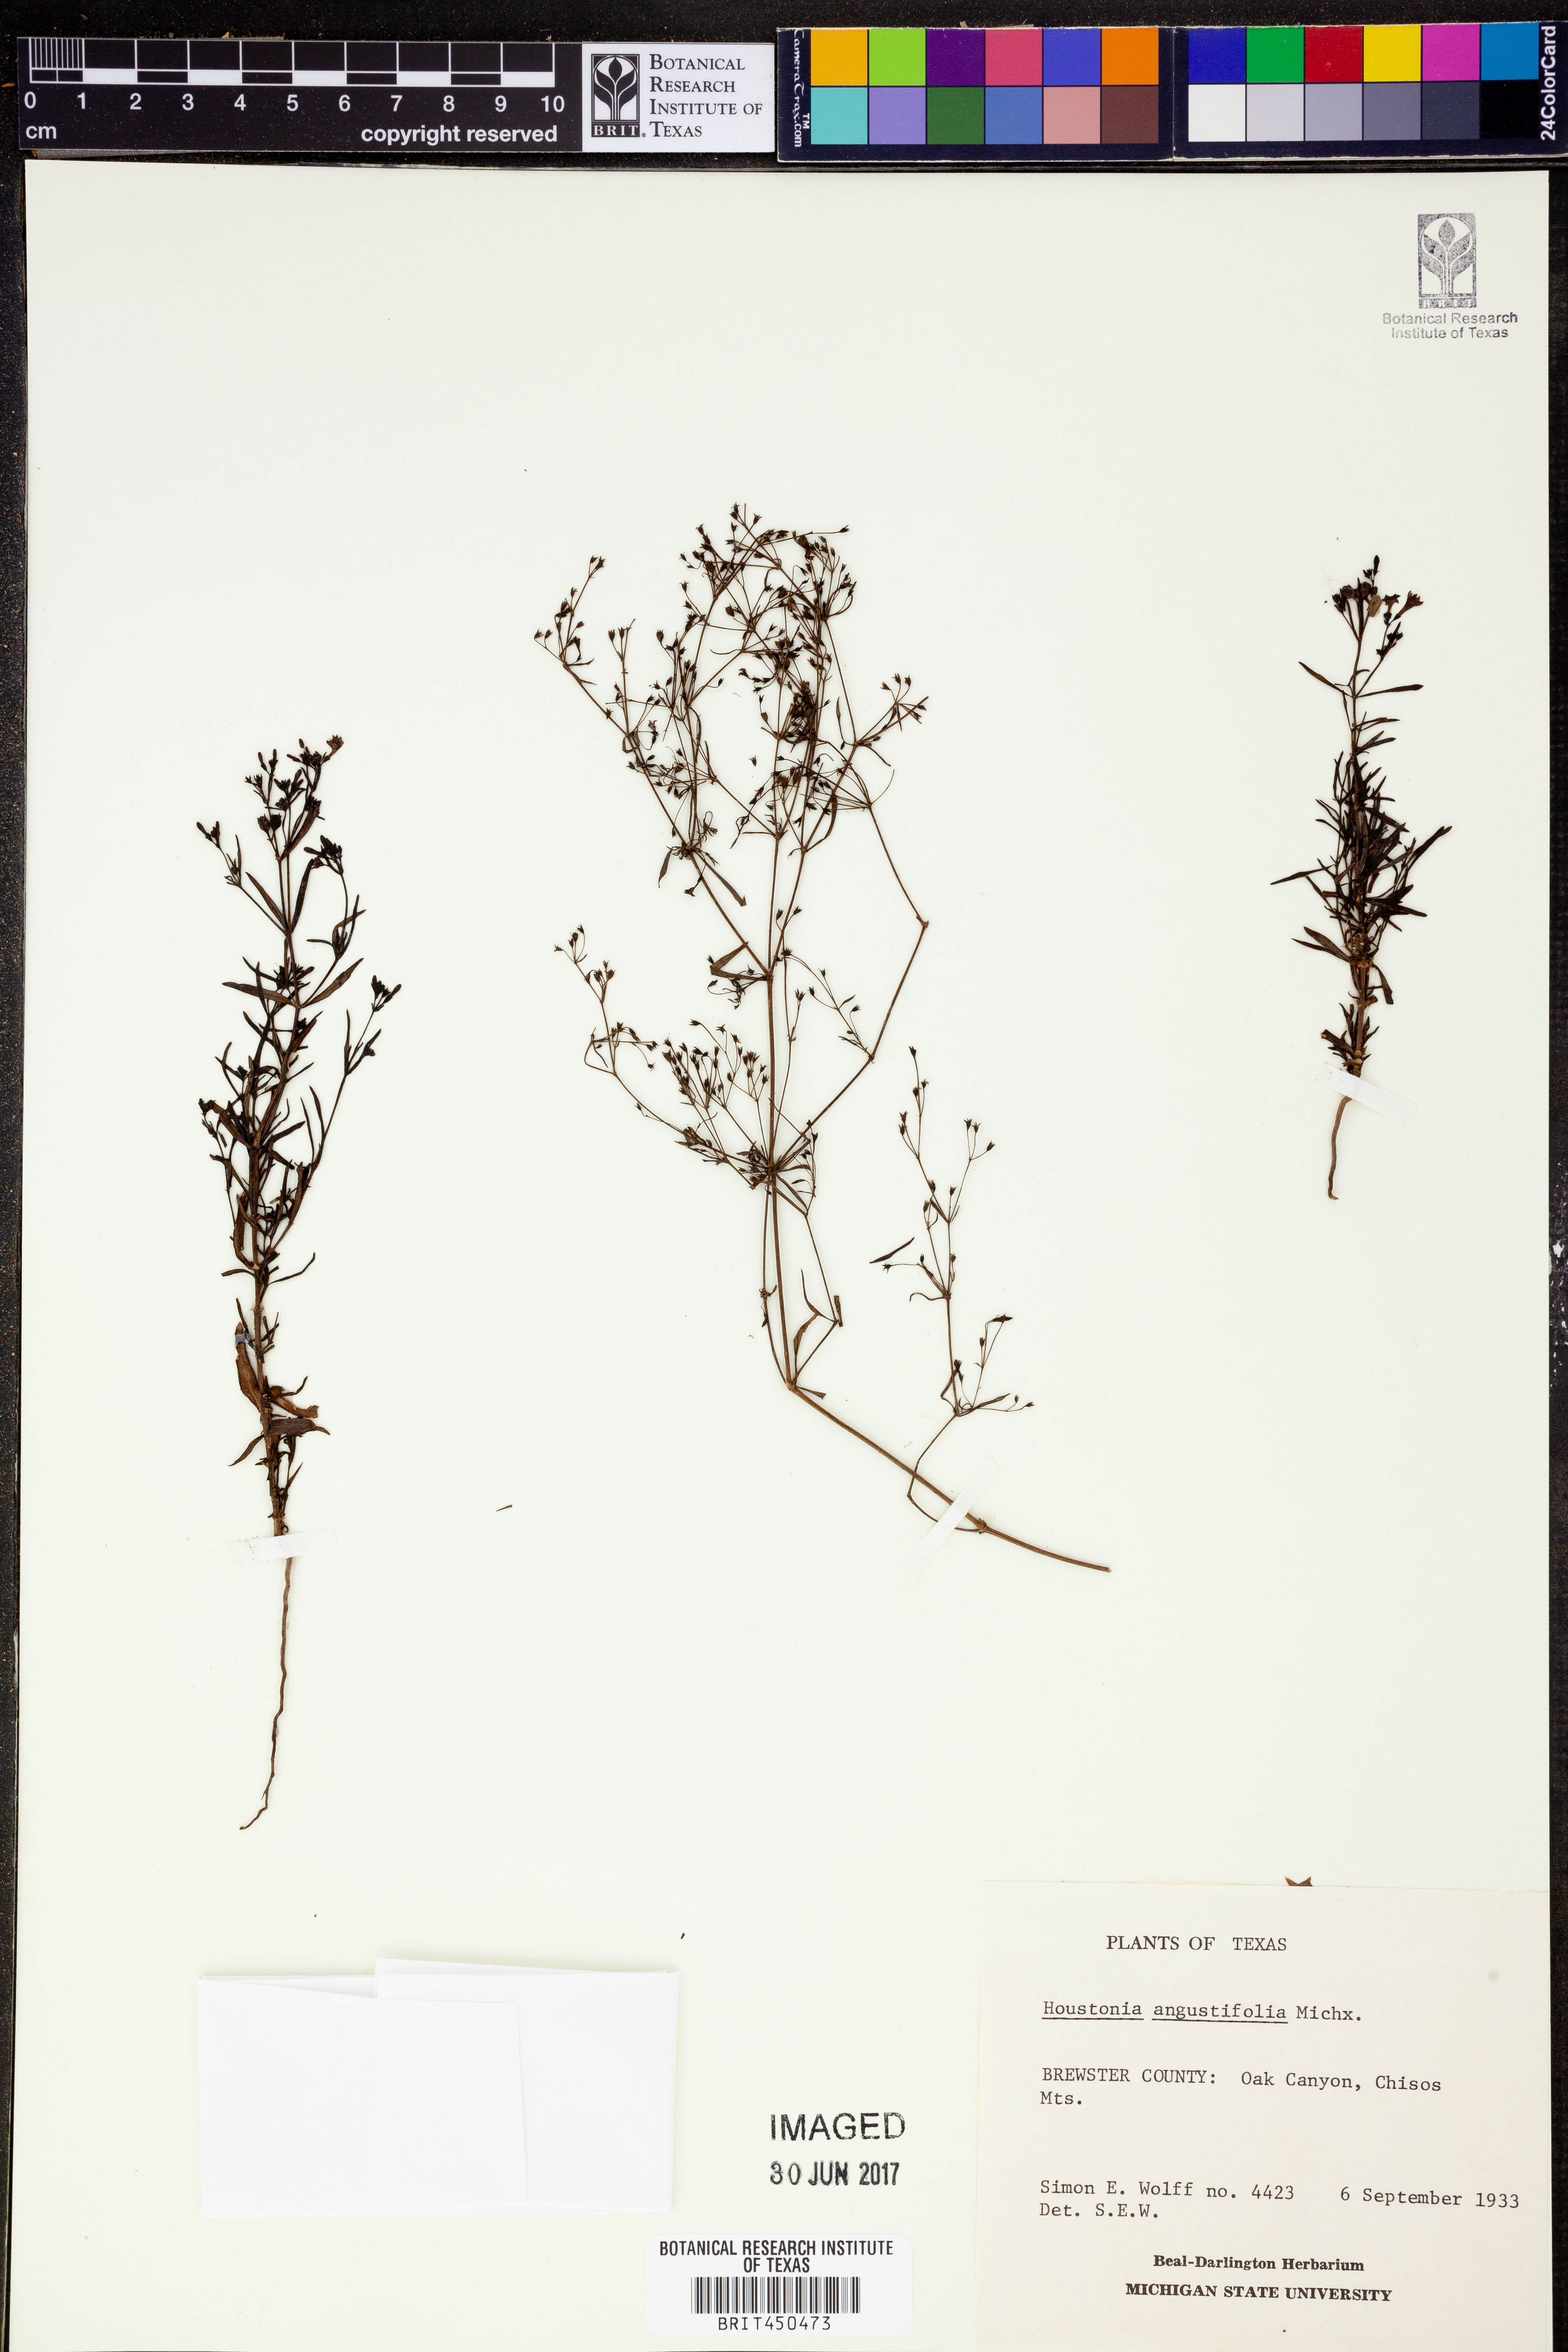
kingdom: Plantae
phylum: Tracheophyta
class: Magnoliopsida
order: Gentianales
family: Rubiaceae
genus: Stenaria
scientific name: Stenaria nigricans
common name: Diamondflowers
